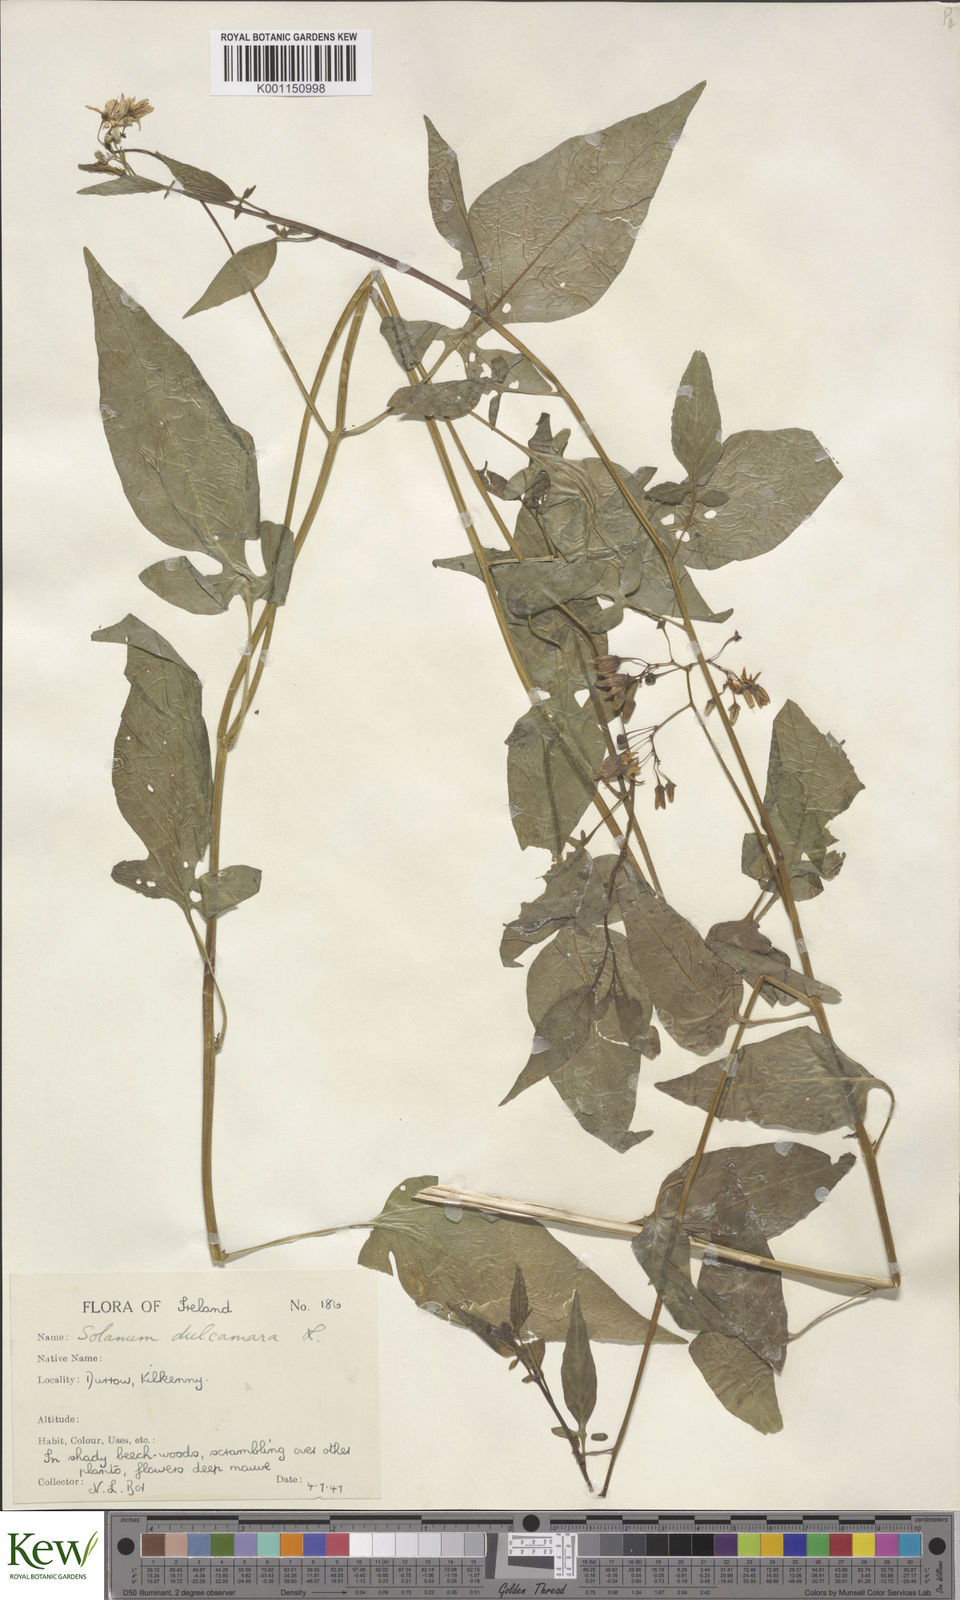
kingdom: Plantae
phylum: Tracheophyta
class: Magnoliopsida
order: Solanales
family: Solanaceae
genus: Solanum
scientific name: Solanum dulcamara
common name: Climbing nightshade
